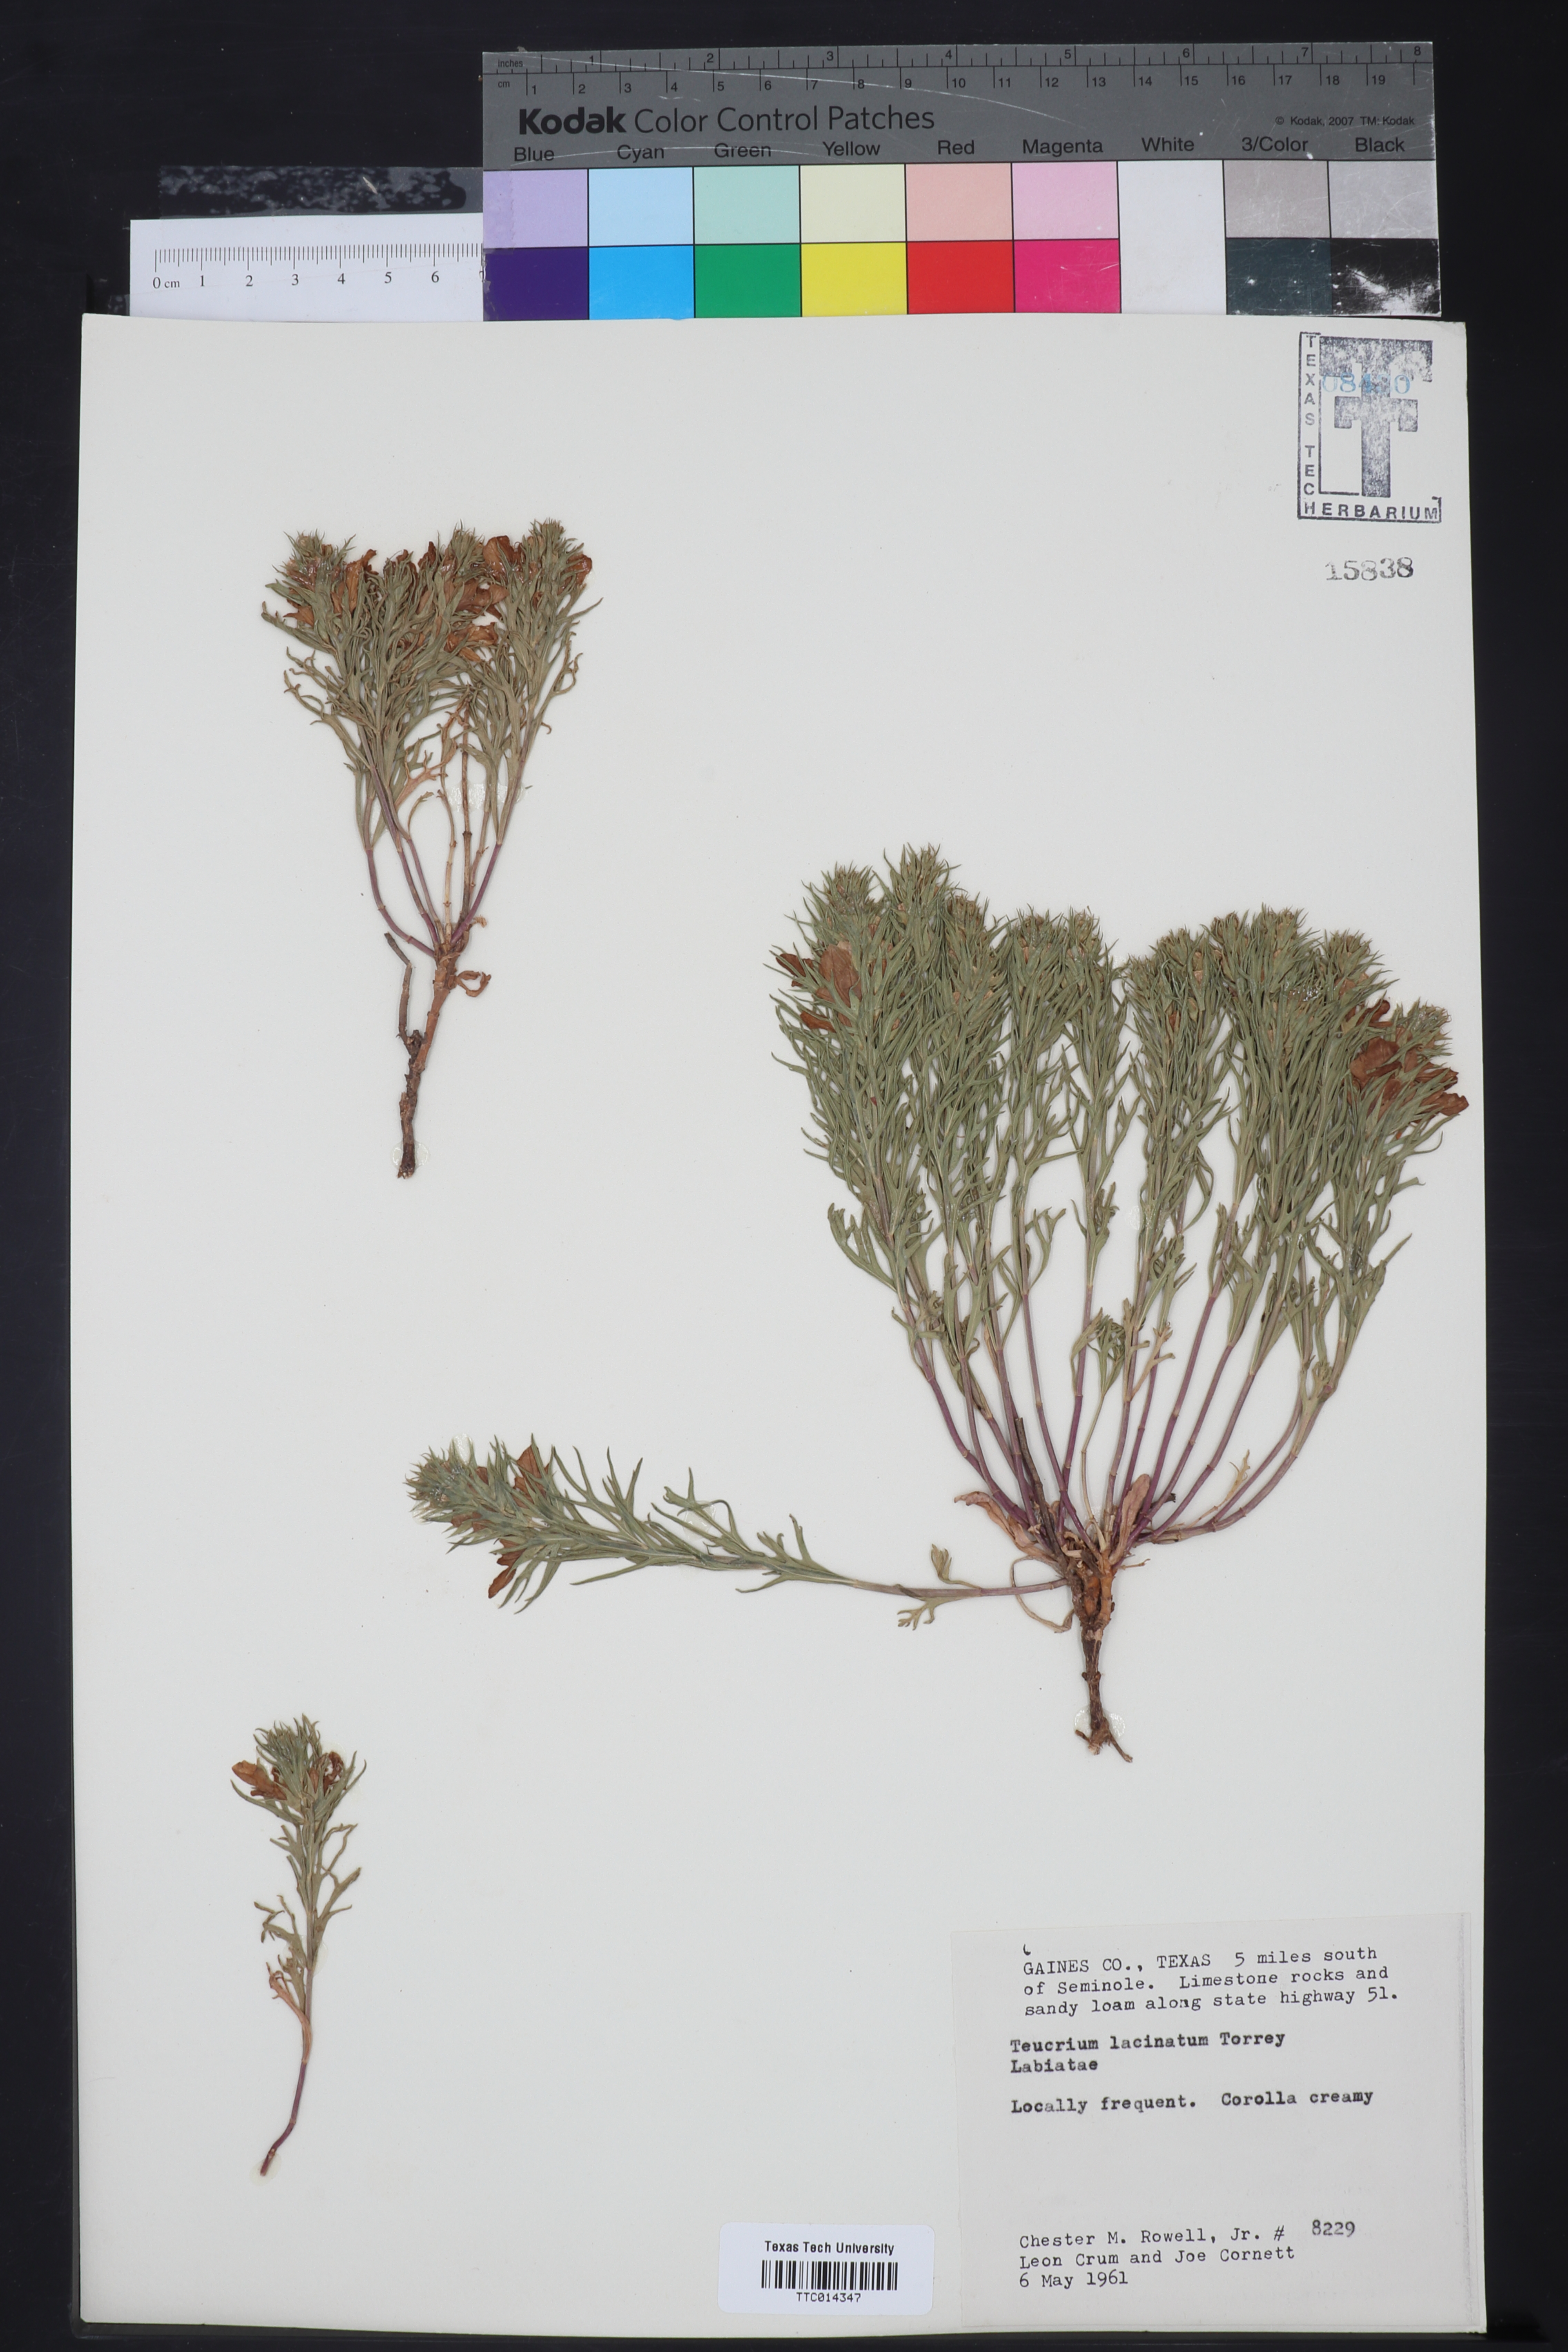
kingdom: Plantae
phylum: Tracheophyta
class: Magnoliopsida
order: Lamiales
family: Lamiaceae
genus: Teucrium
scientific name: Teucrium laciniatum
